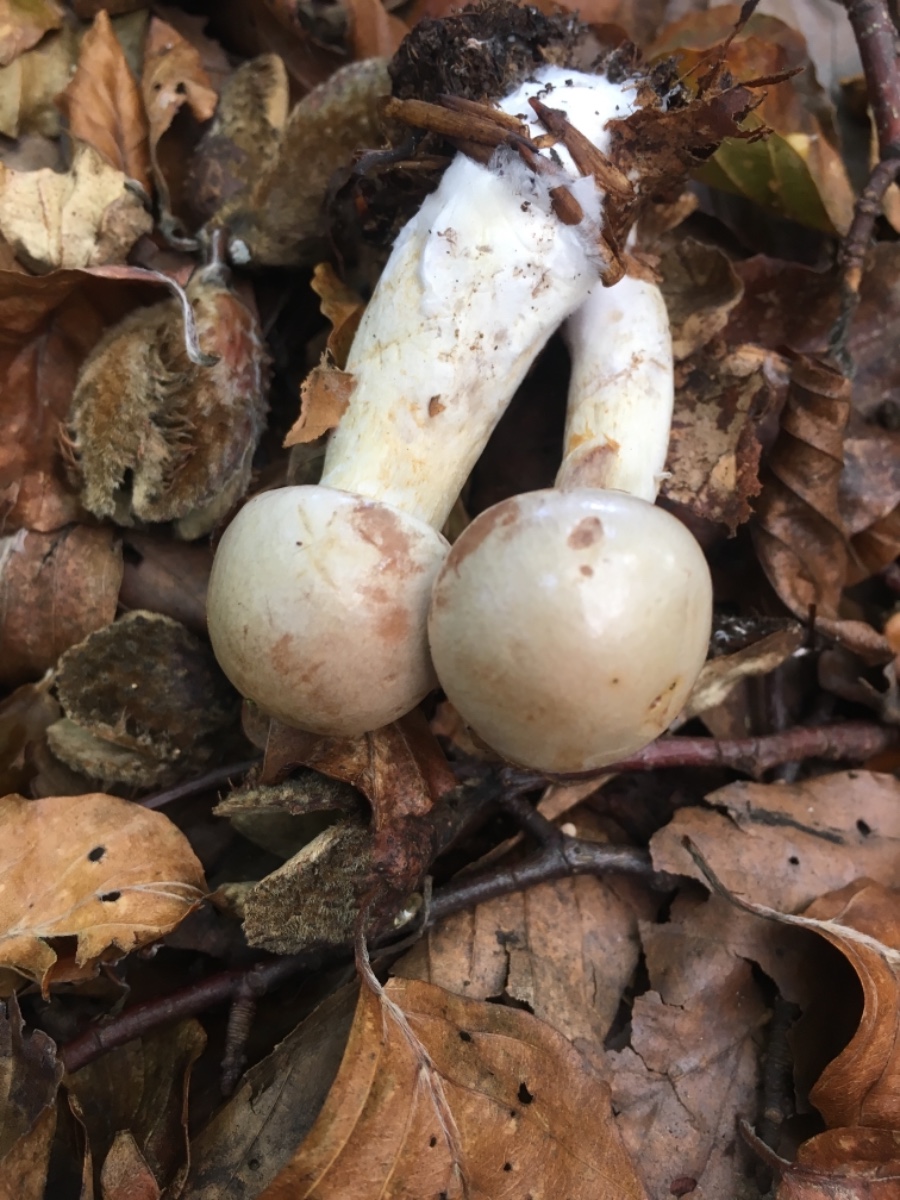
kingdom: Fungi
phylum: Basidiomycota
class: Agaricomycetes
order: Agaricales
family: Cortinariaceae
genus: Cortinarius
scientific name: Cortinarius
